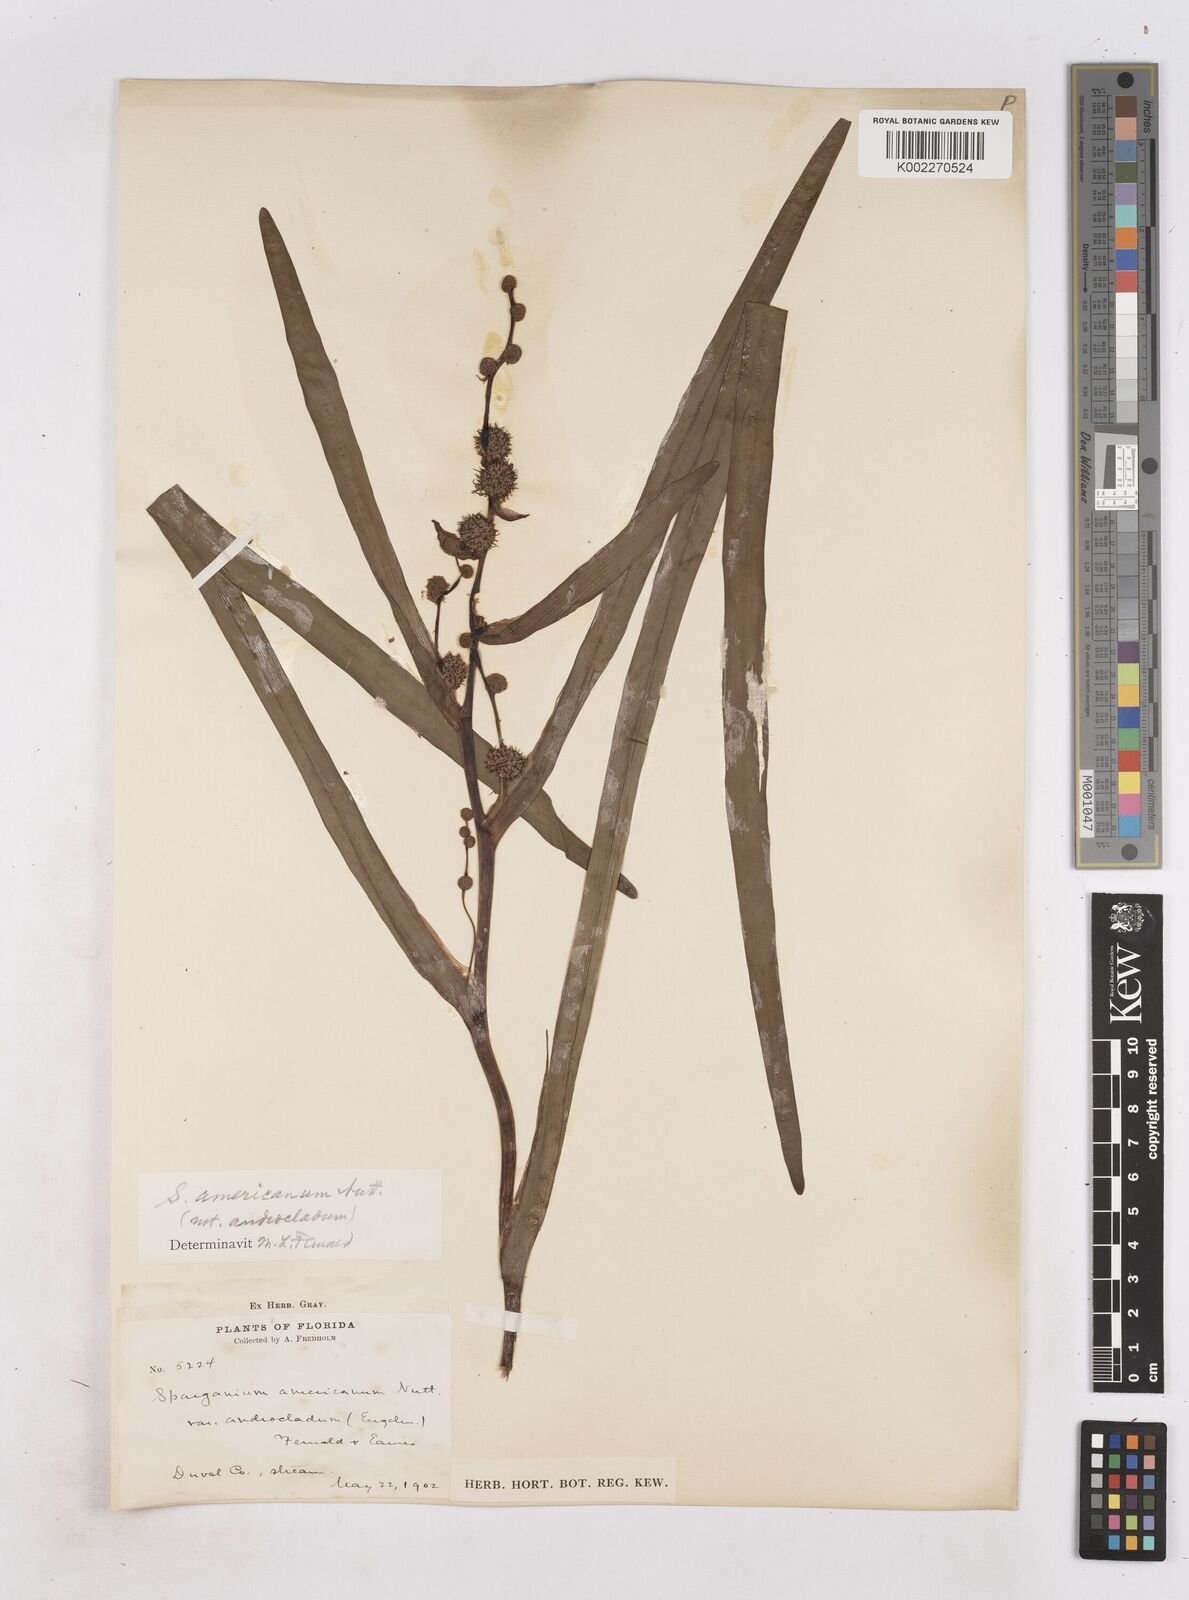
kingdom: Plantae
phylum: Tracheophyta
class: Liliopsida
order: Poales
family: Typhaceae
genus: Sparganium
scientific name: Sparganium americanum
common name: American burreed
